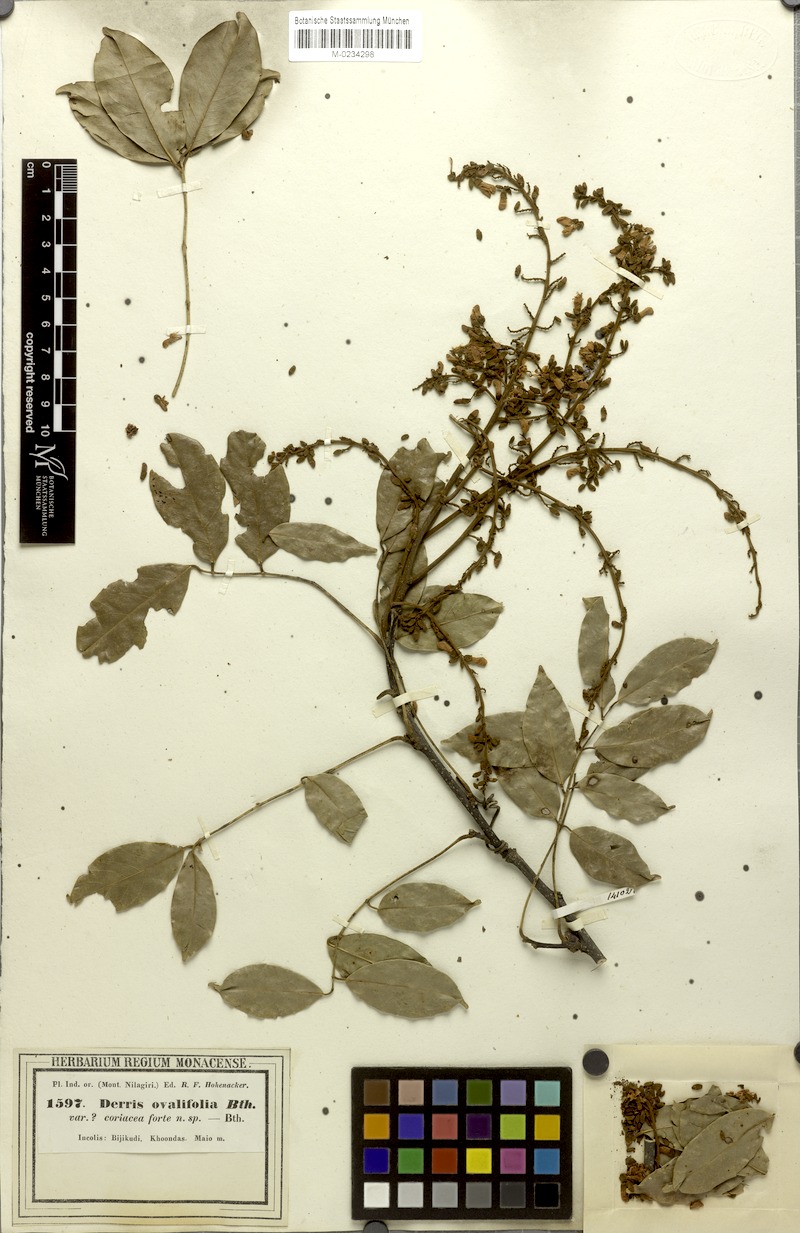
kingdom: Plantae
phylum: Tracheophyta
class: Magnoliopsida
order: Fabales
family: Fabaceae
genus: Derris
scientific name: Derris brevipes
